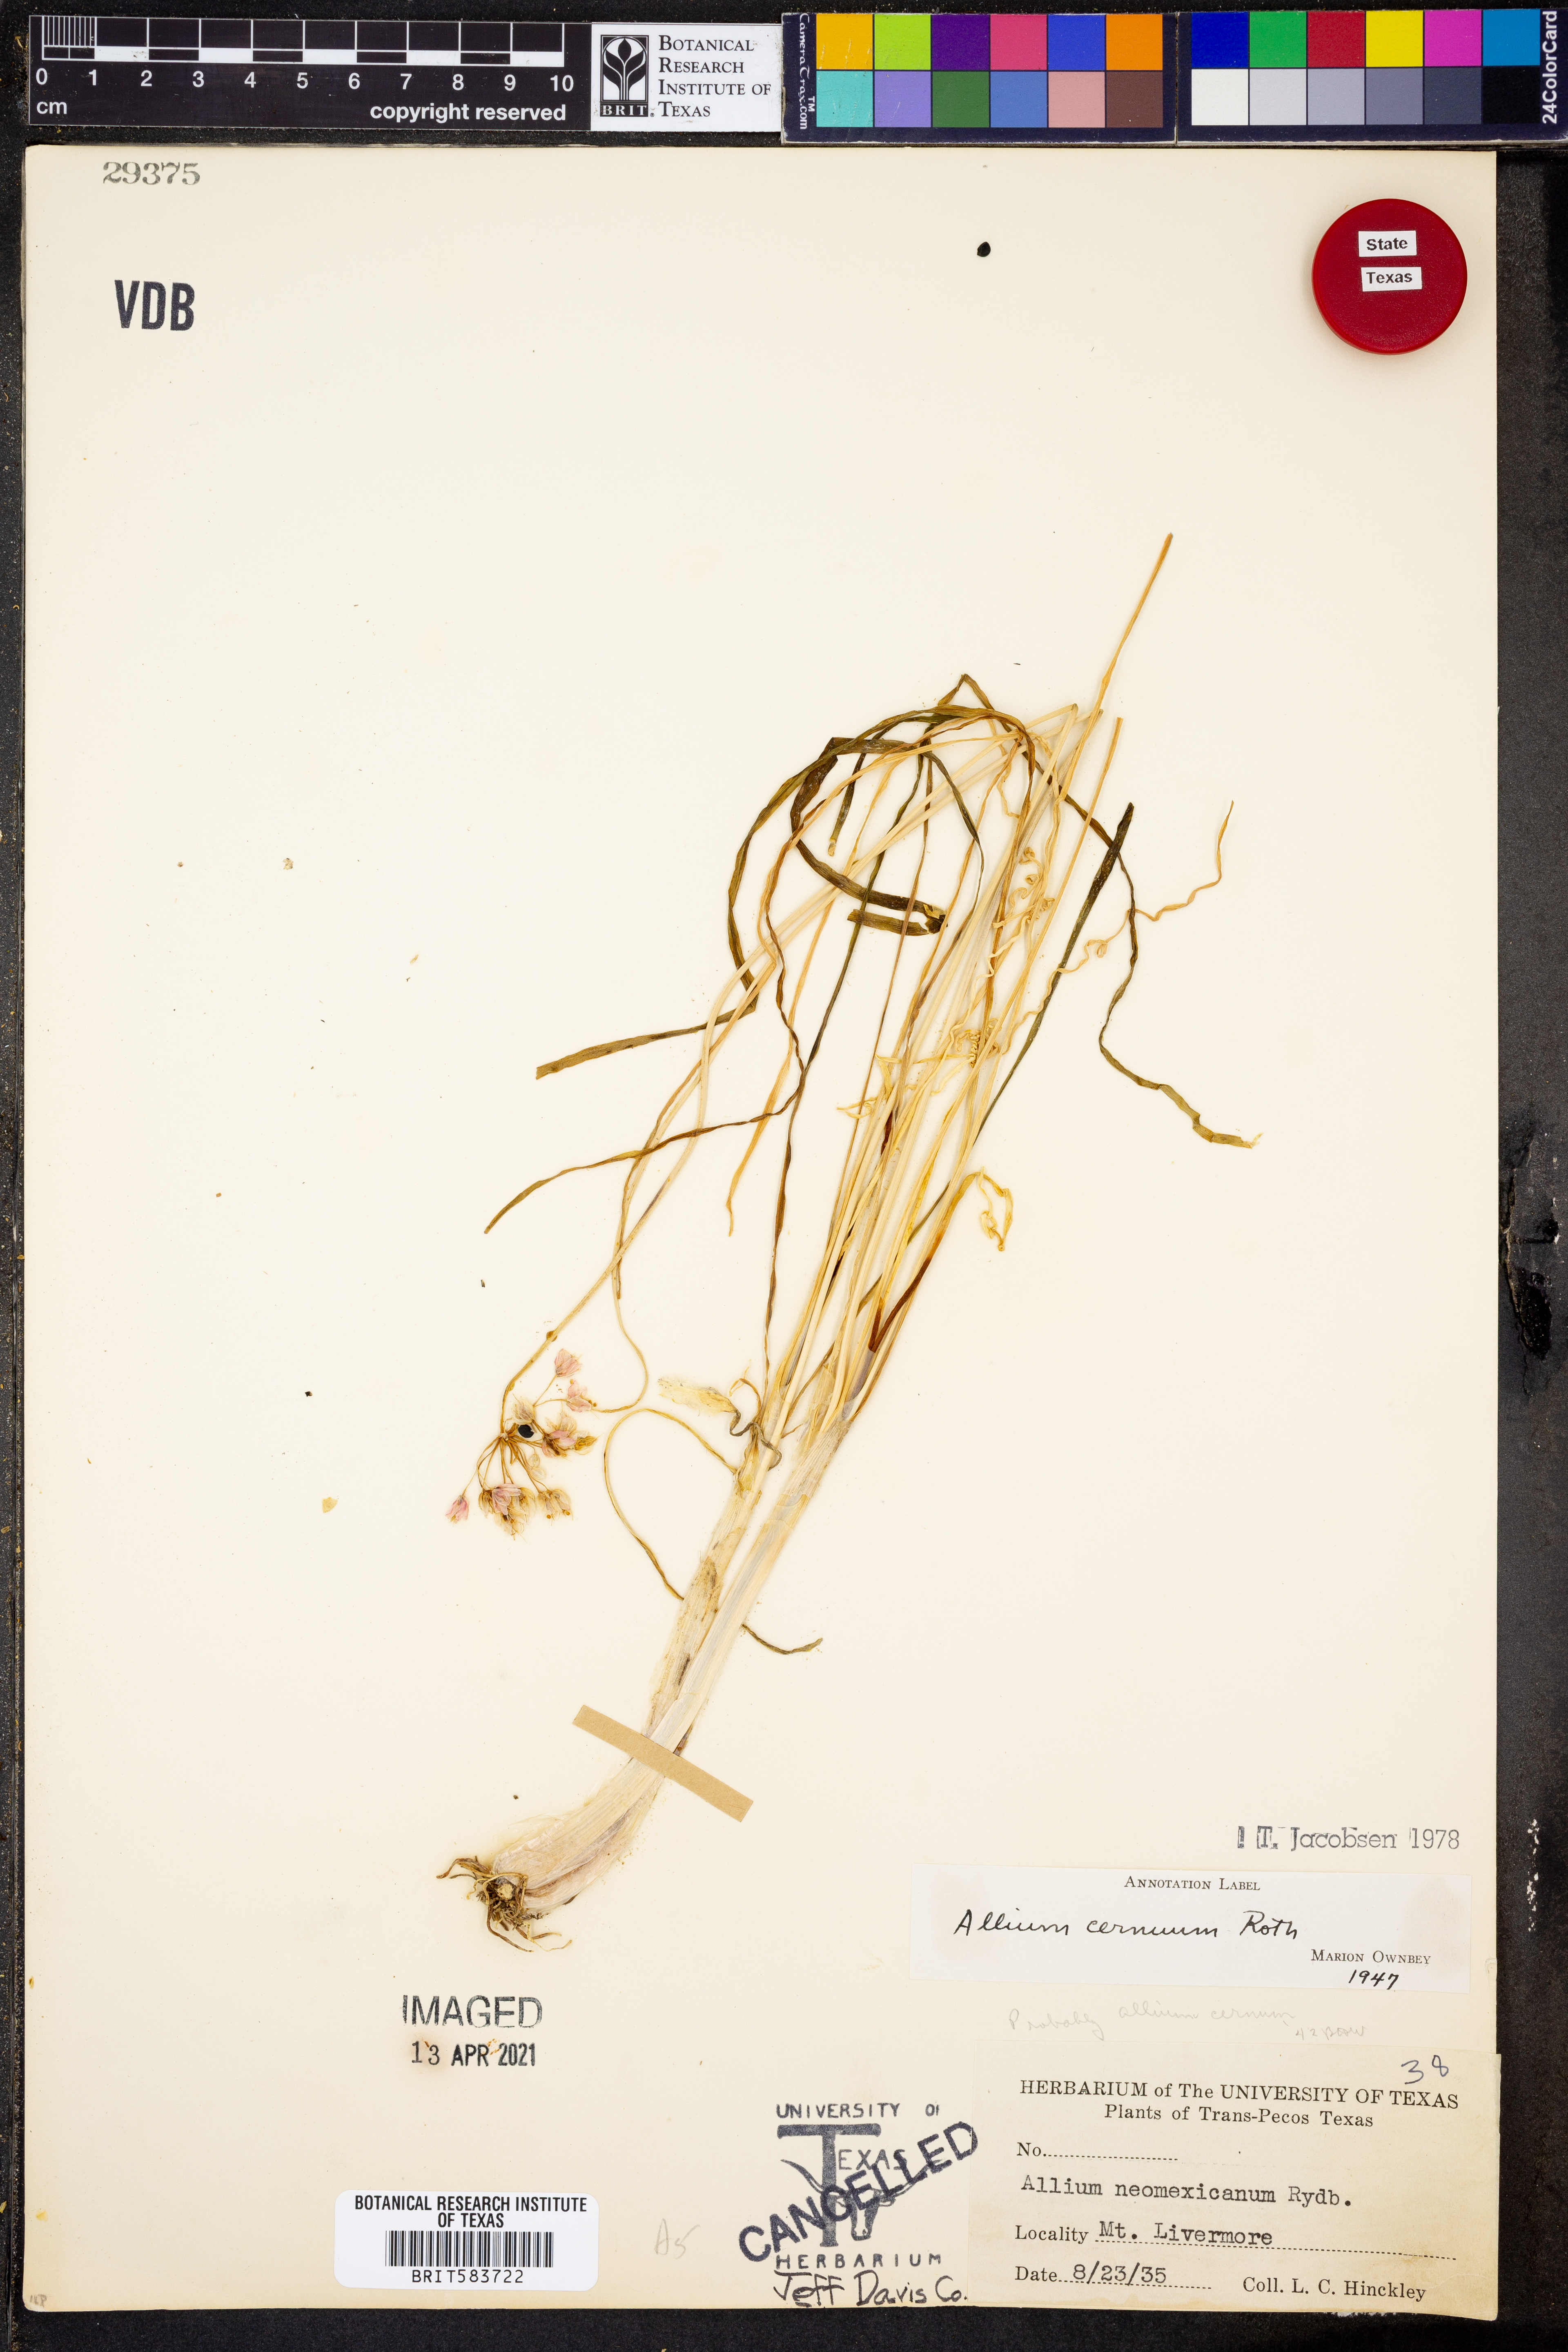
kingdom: Plantae
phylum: Tracheophyta
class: Liliopsida
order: Asparagales
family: Amaryllidaceae
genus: Allium
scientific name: Allium cernuum
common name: Nodding onion
